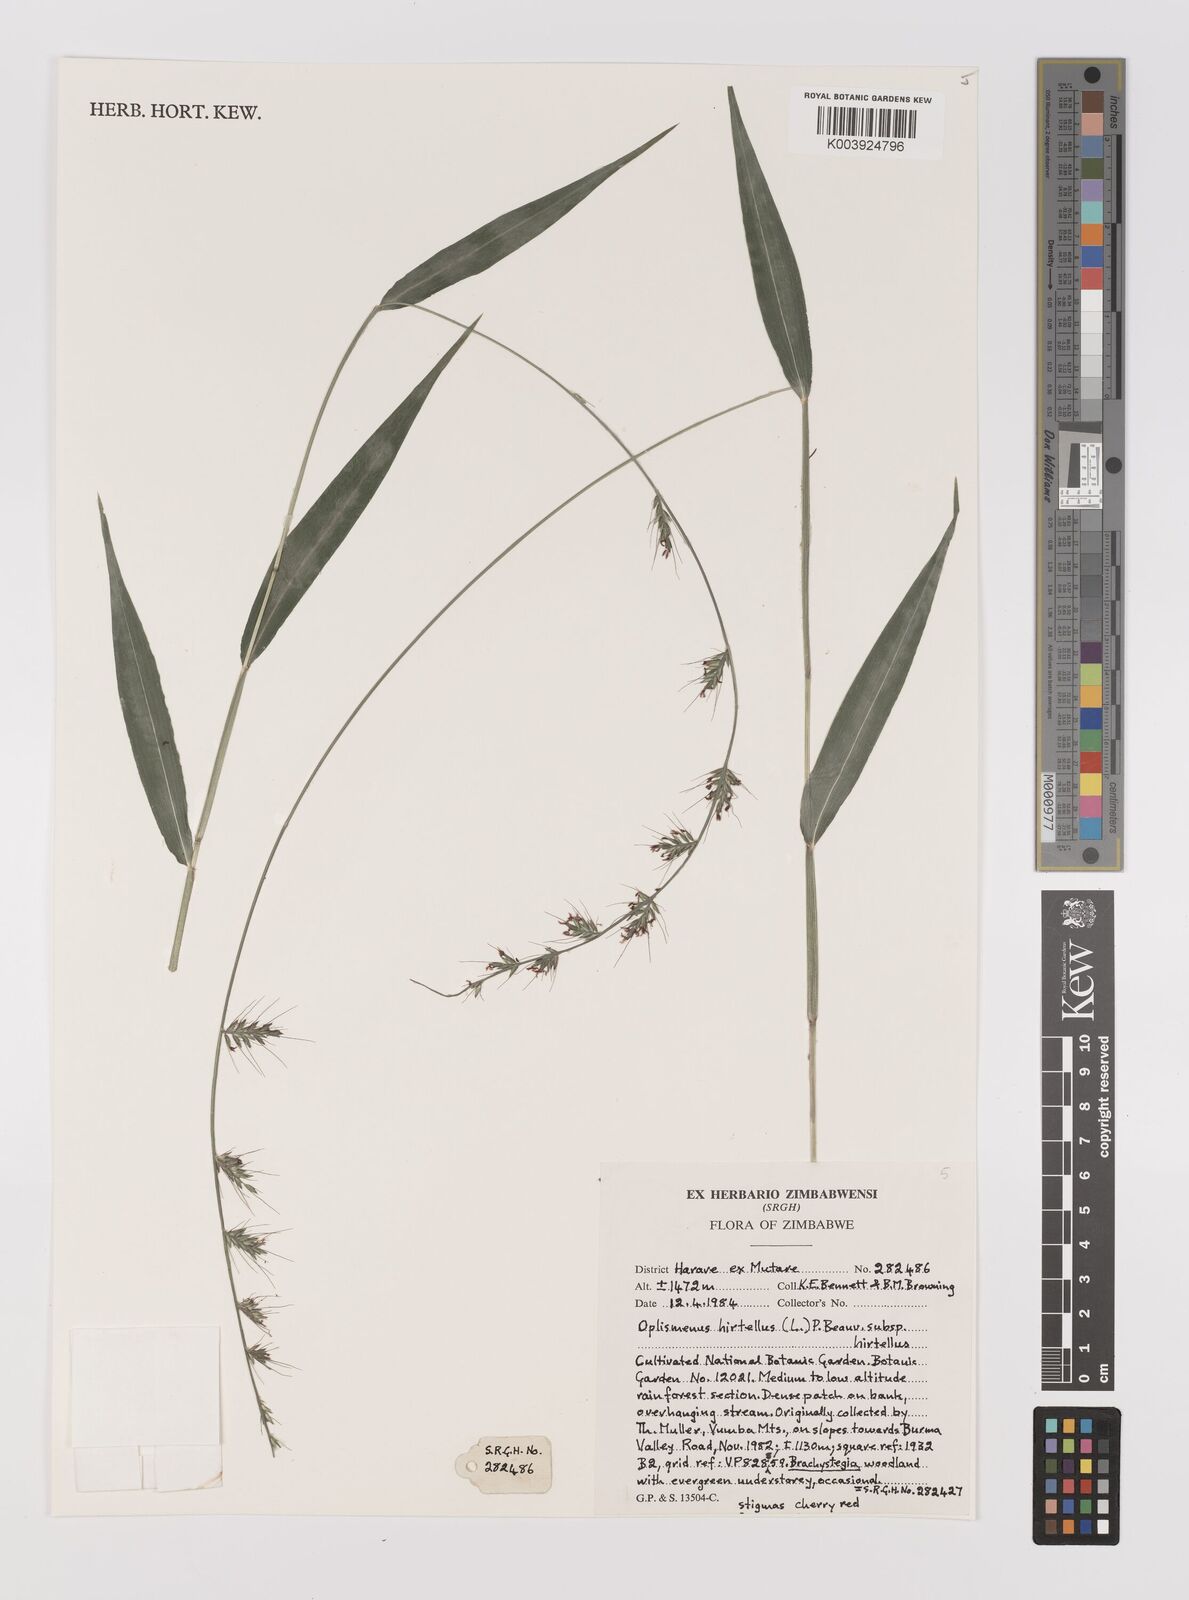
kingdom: Plantae
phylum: Tracheophyta
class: Liliopsida
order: Poales
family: Poaceae
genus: Oplismenus
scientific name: Oplismenus hirtellus
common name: Basketgrass
